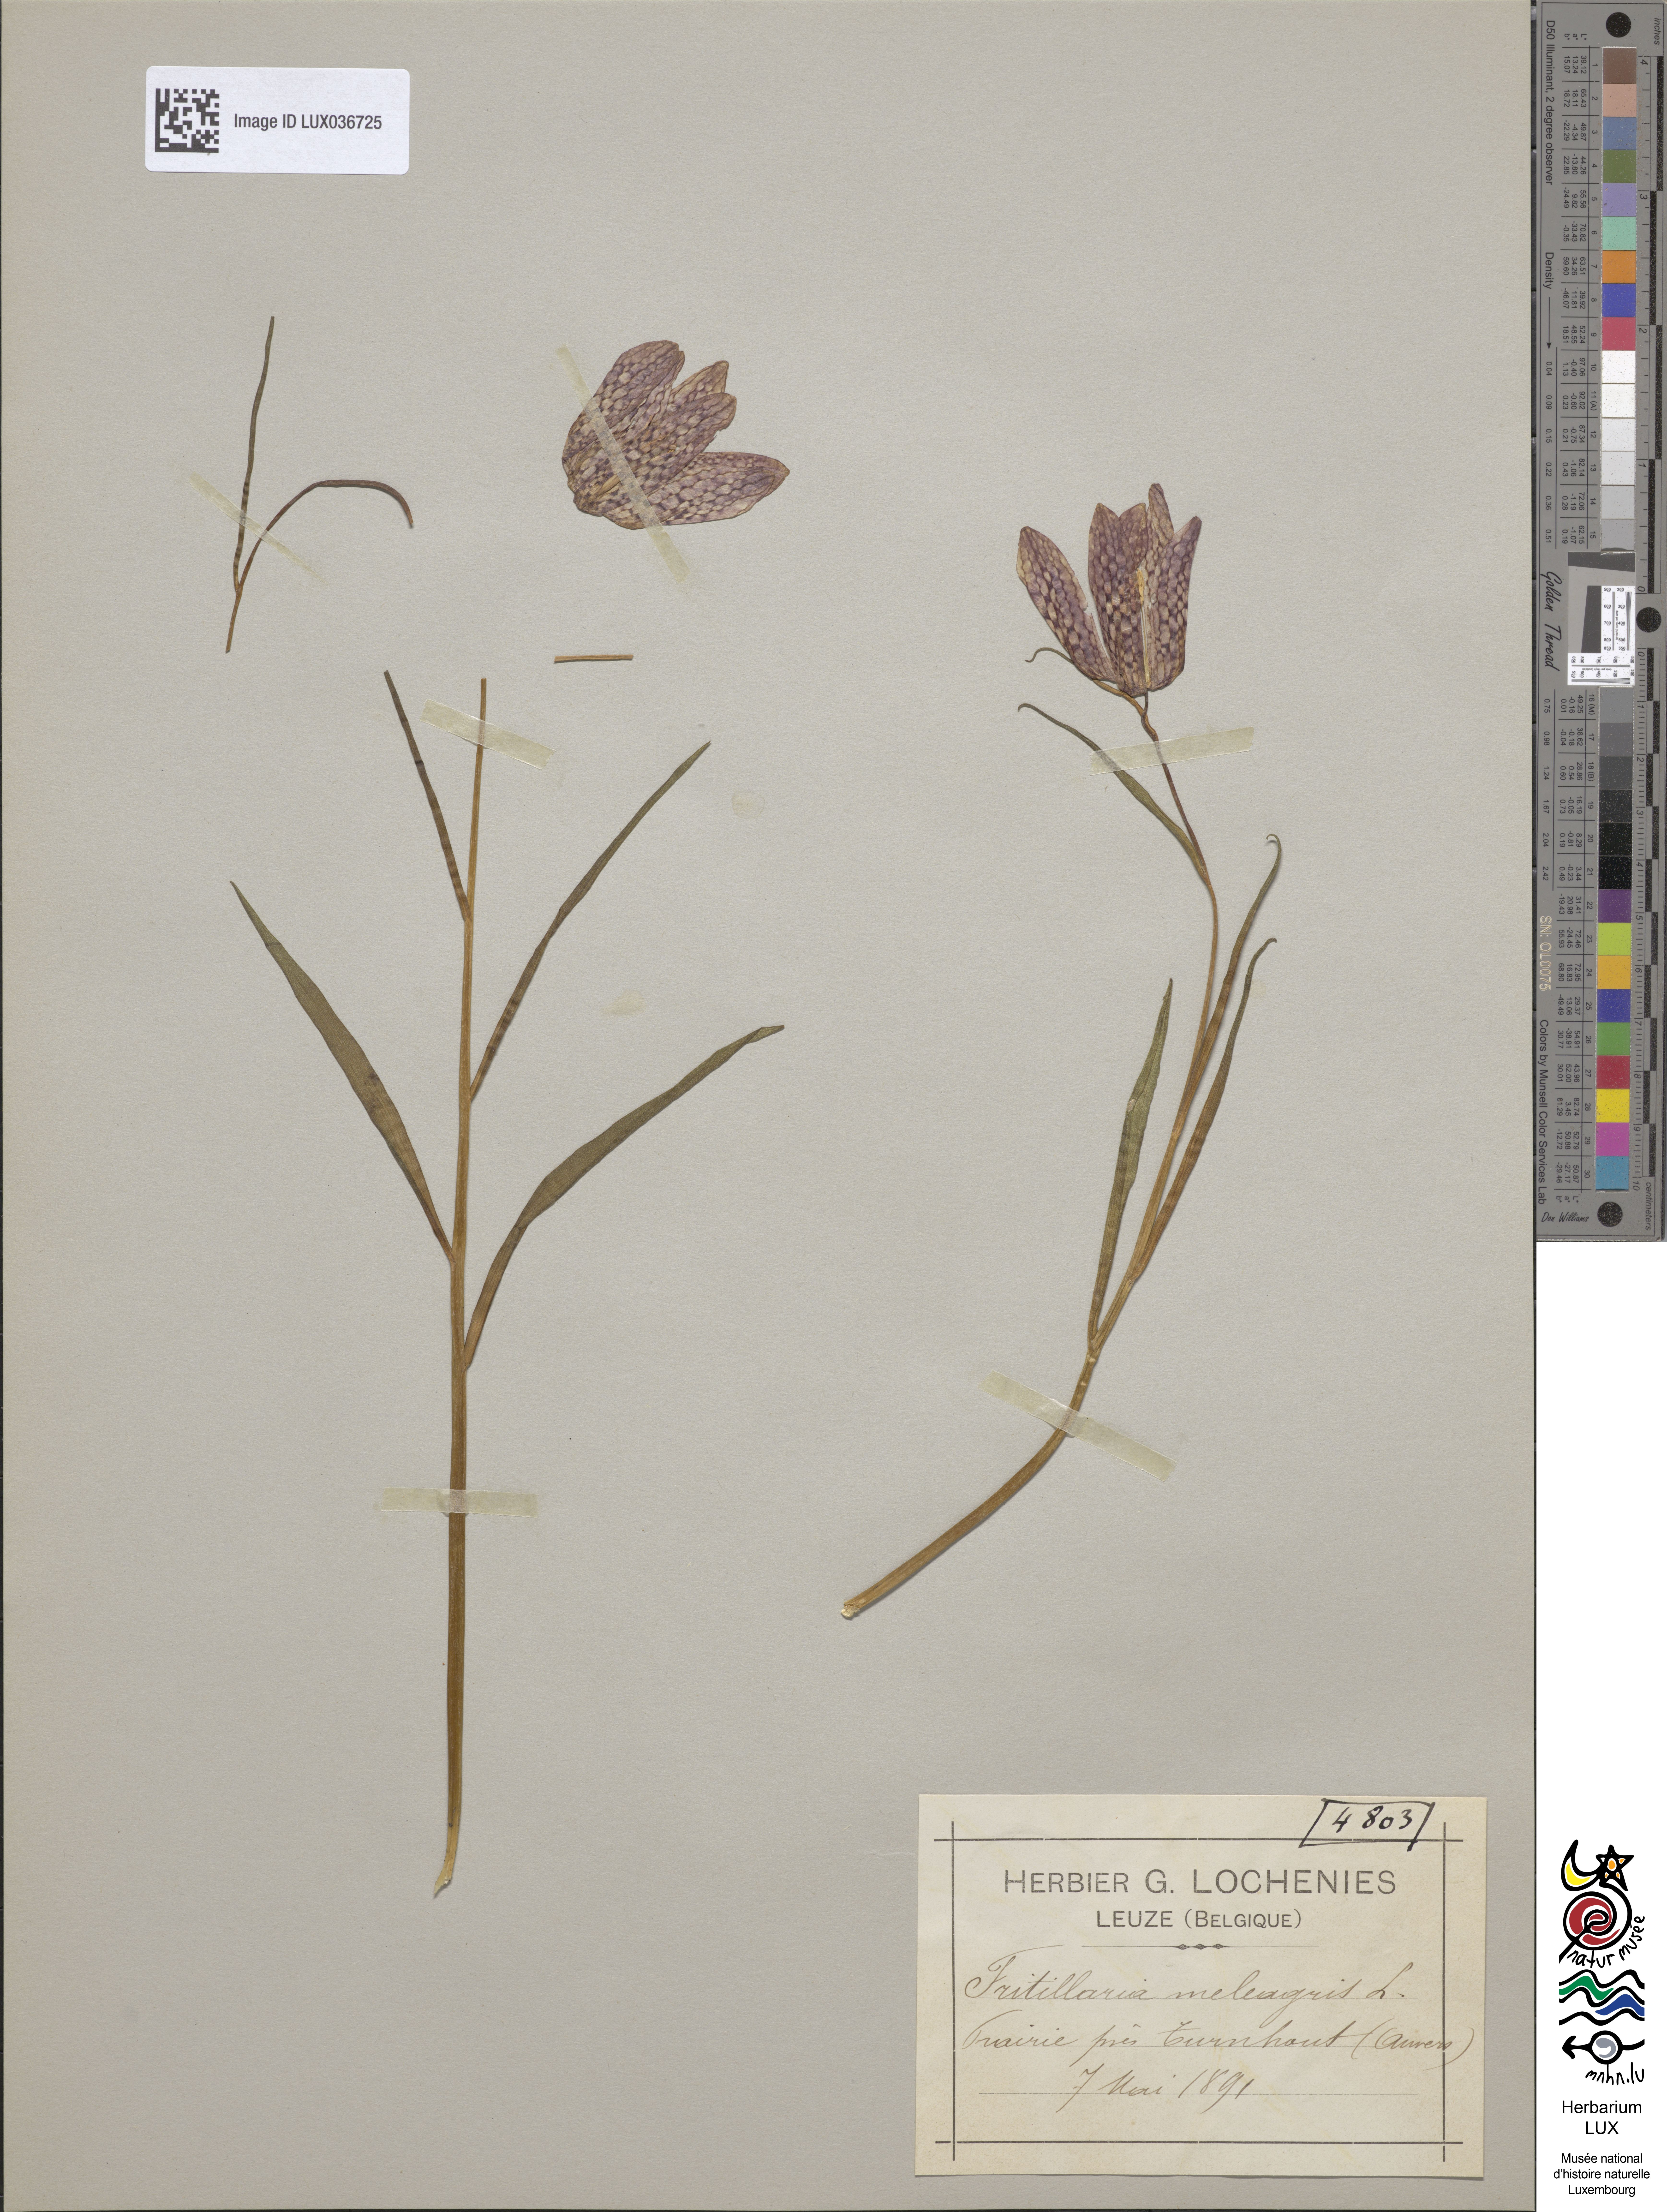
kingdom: Plantae
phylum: Tracheophyta
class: Liliopsida
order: Liliales
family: Liliaceae
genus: Fritillaria
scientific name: Fritillaria meleagris
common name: Fritillary
